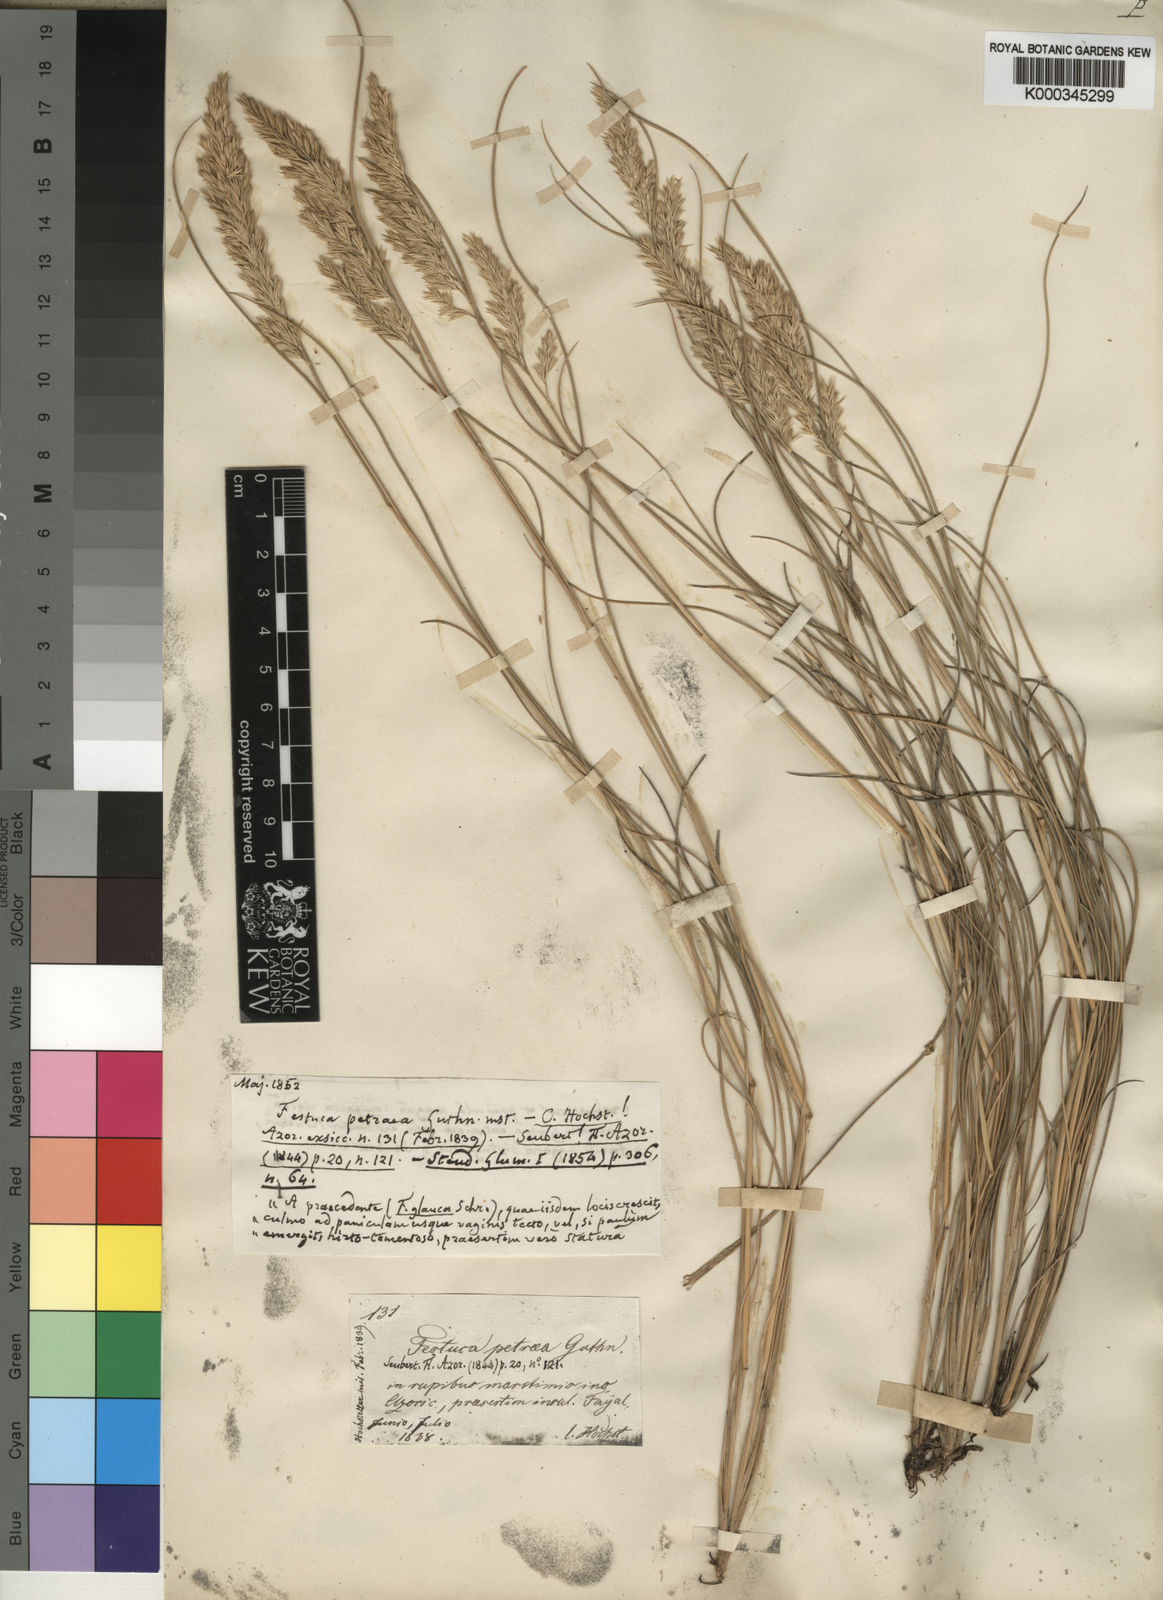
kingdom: Plantae
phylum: Tracheophyta
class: Liliopsida
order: Poales
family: Poaceae
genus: Festuca
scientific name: Festuca
